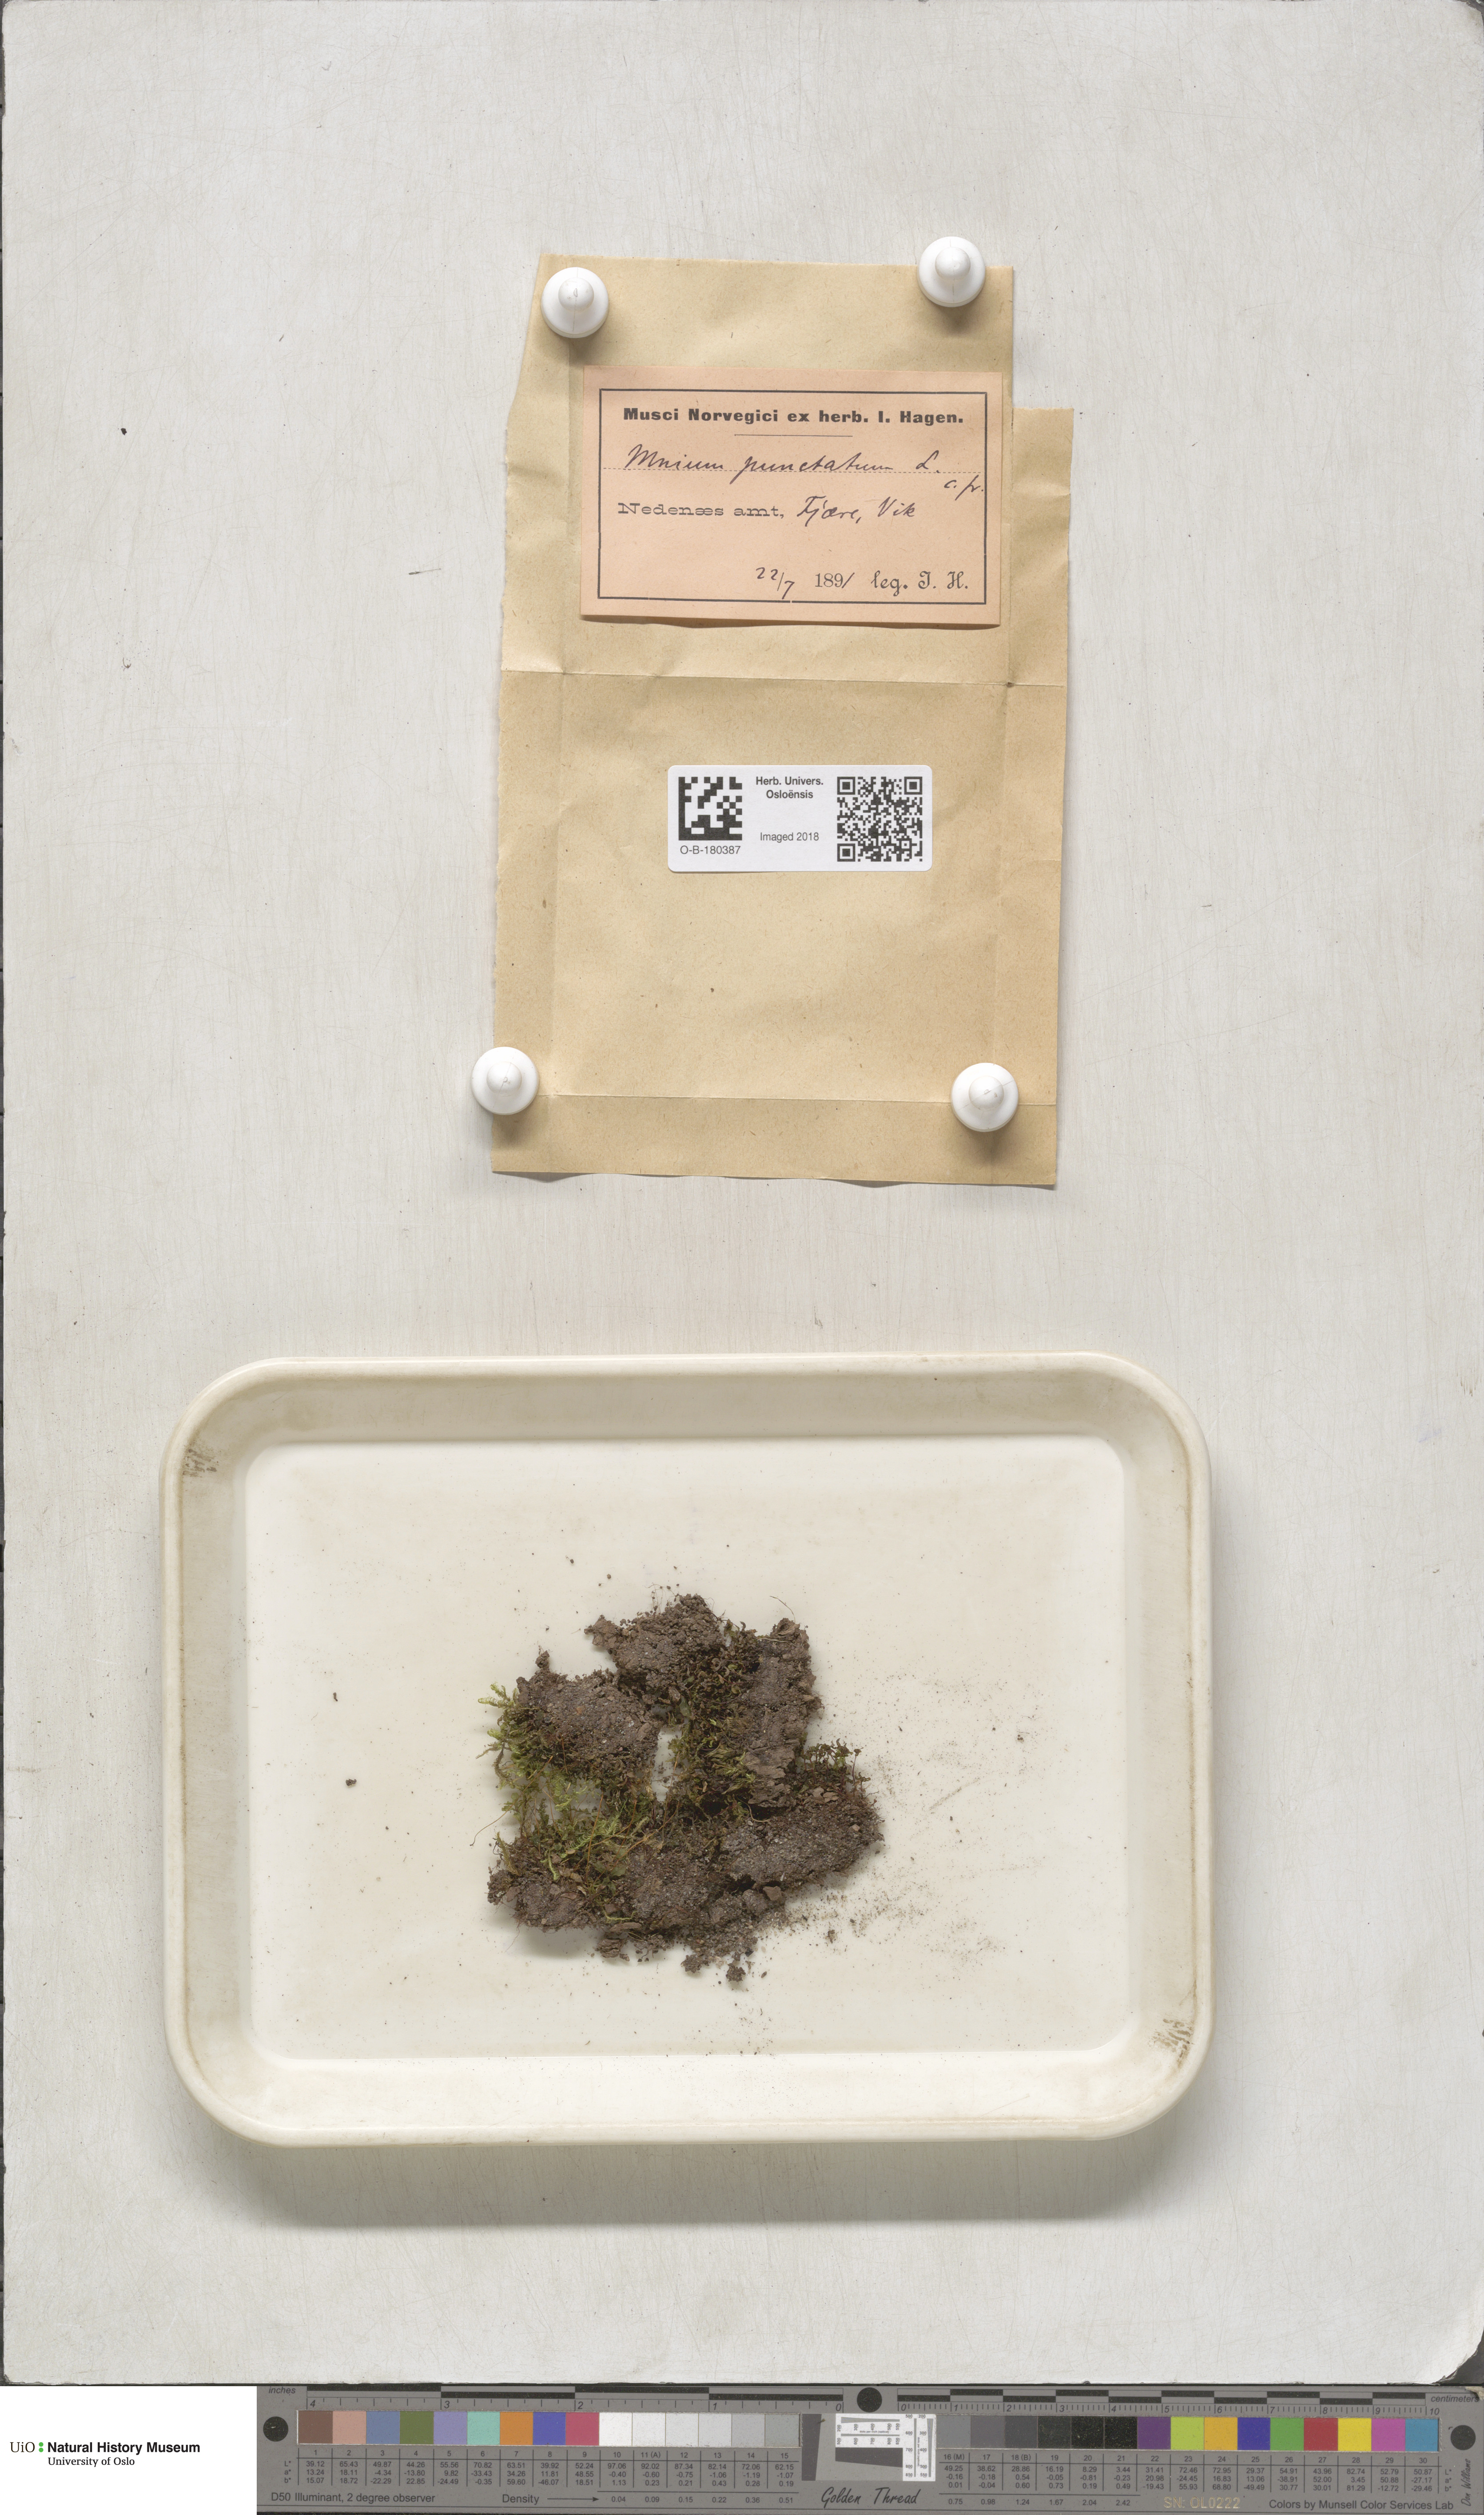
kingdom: Plantae
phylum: Bryophyta
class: Bryopsida
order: Bryales
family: Mniaceae
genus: Rhizomnium
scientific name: Rhizomnium punctatum
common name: Dotted leafy moss
